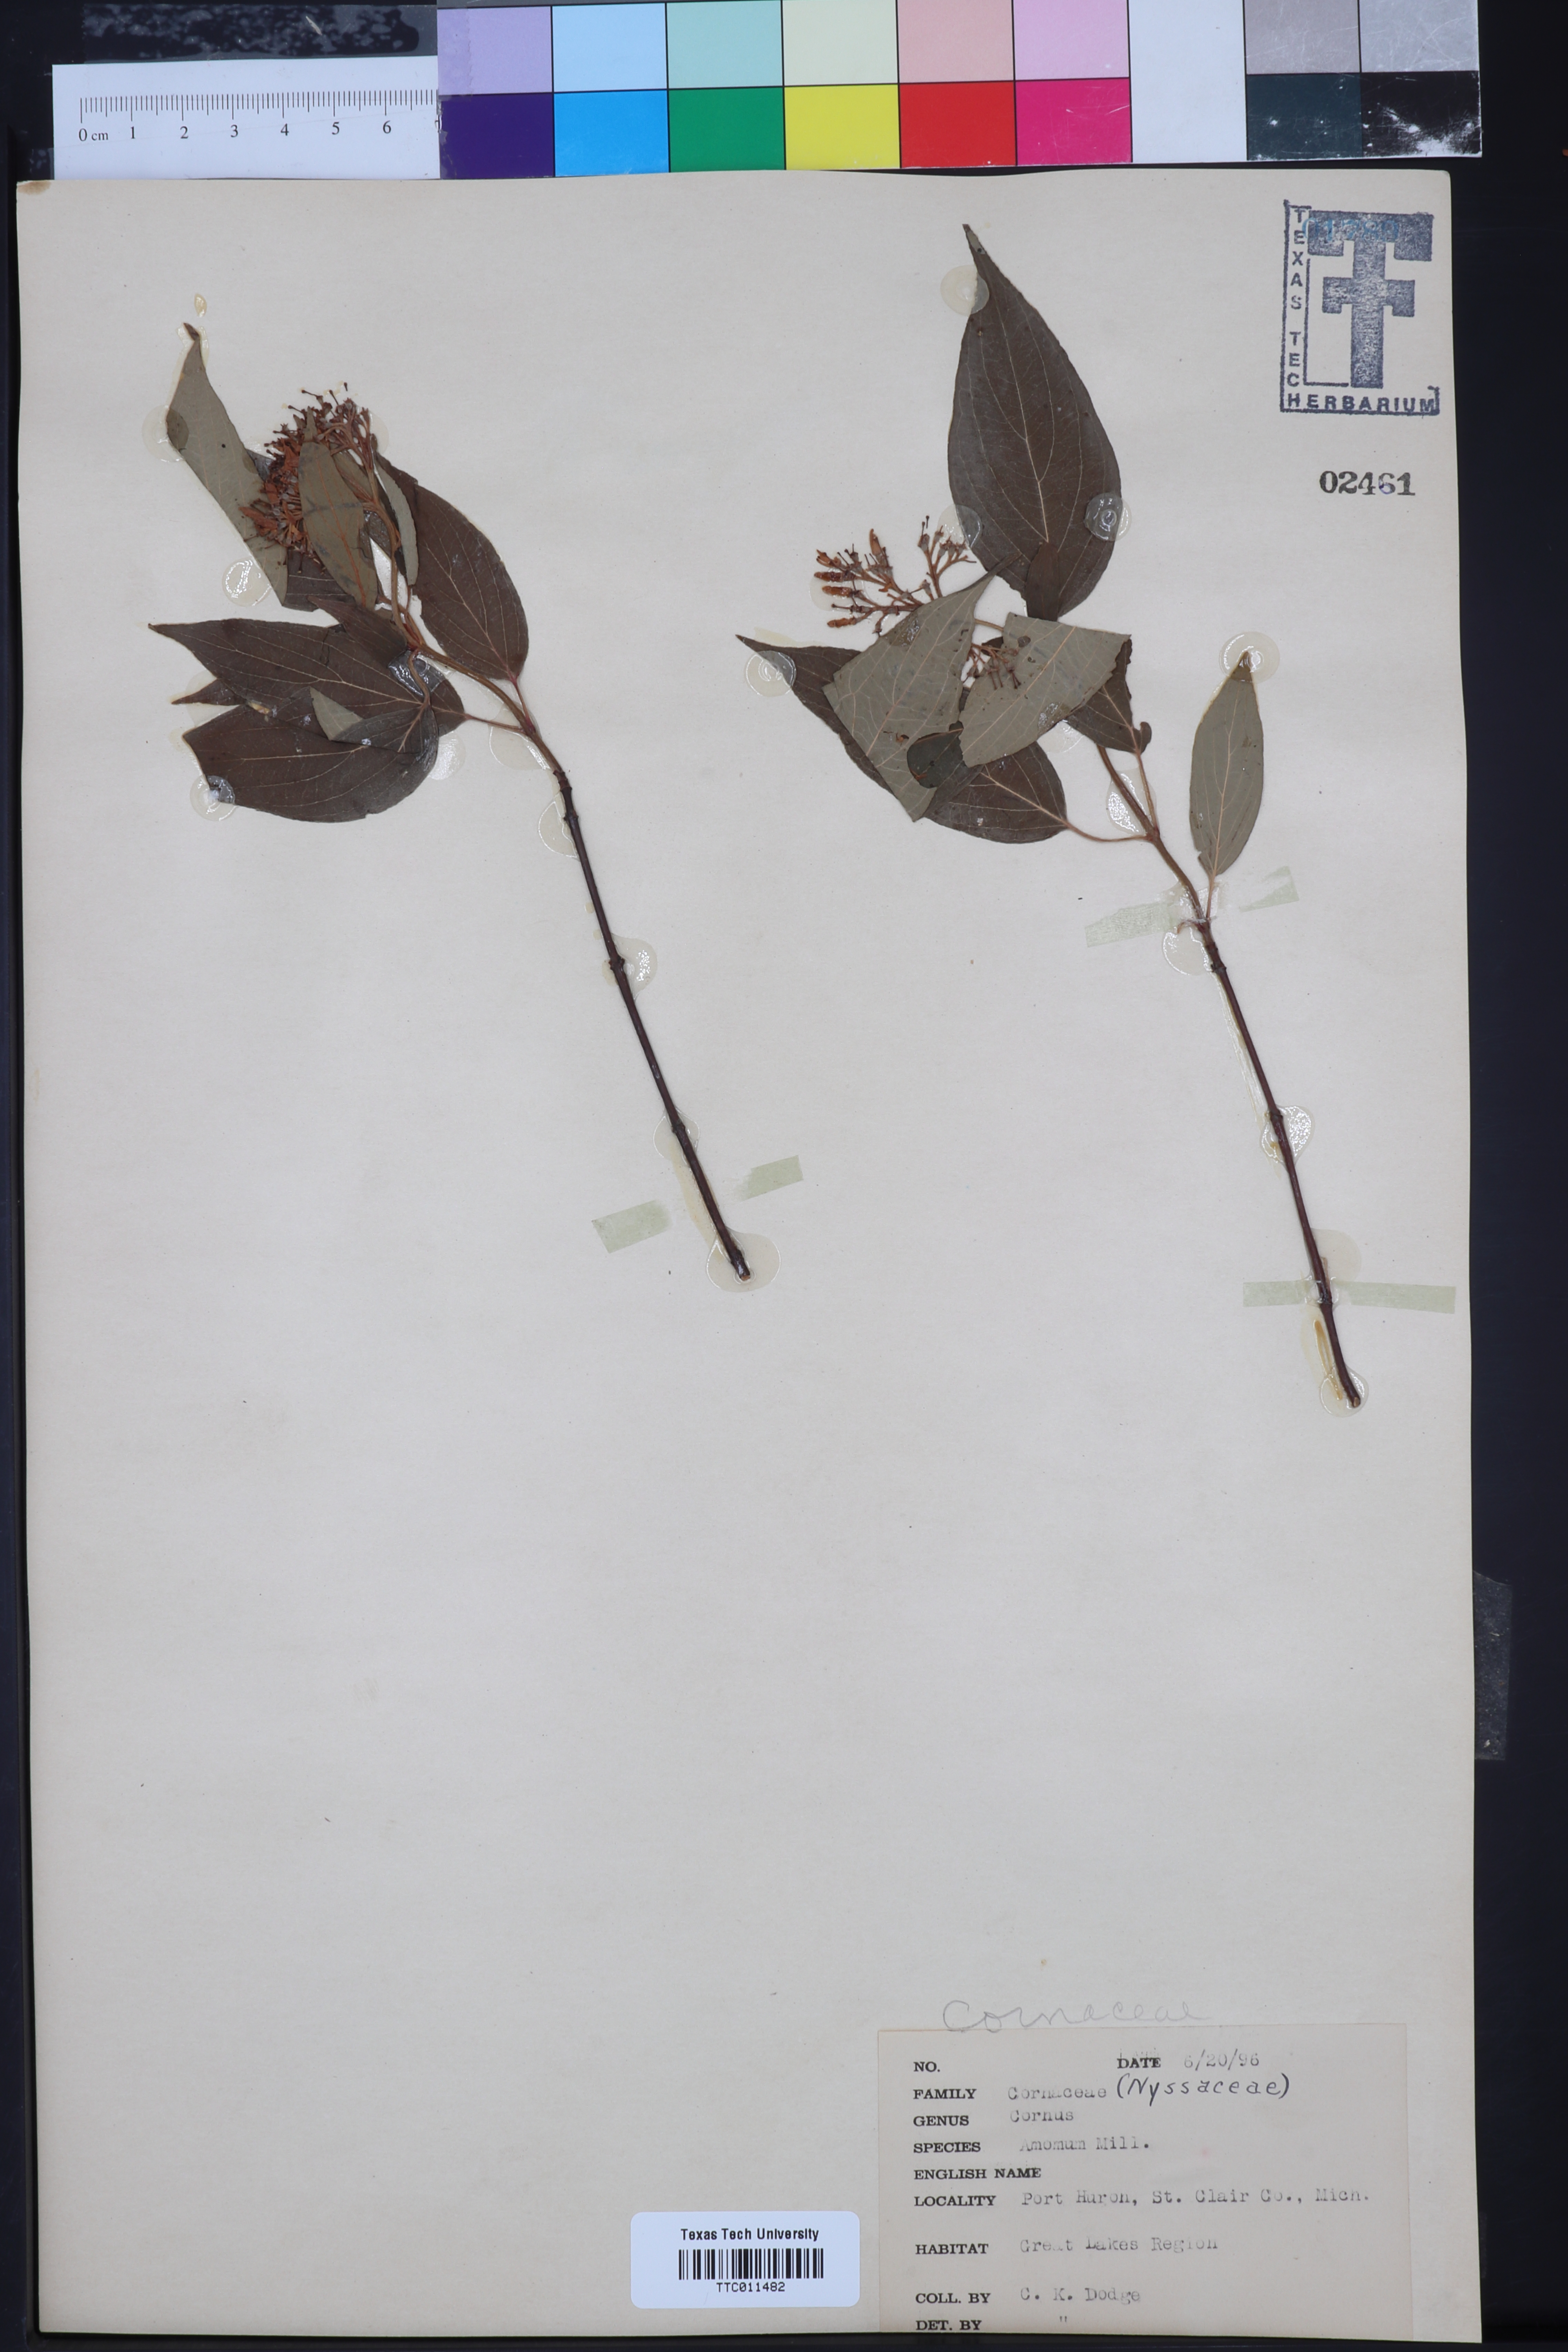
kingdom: Plantae
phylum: Tracheophyta
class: Magnoliopsida
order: Cornales
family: Cornaceae
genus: Cornus
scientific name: Cornus alternifolia
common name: Pagoda dogwood
